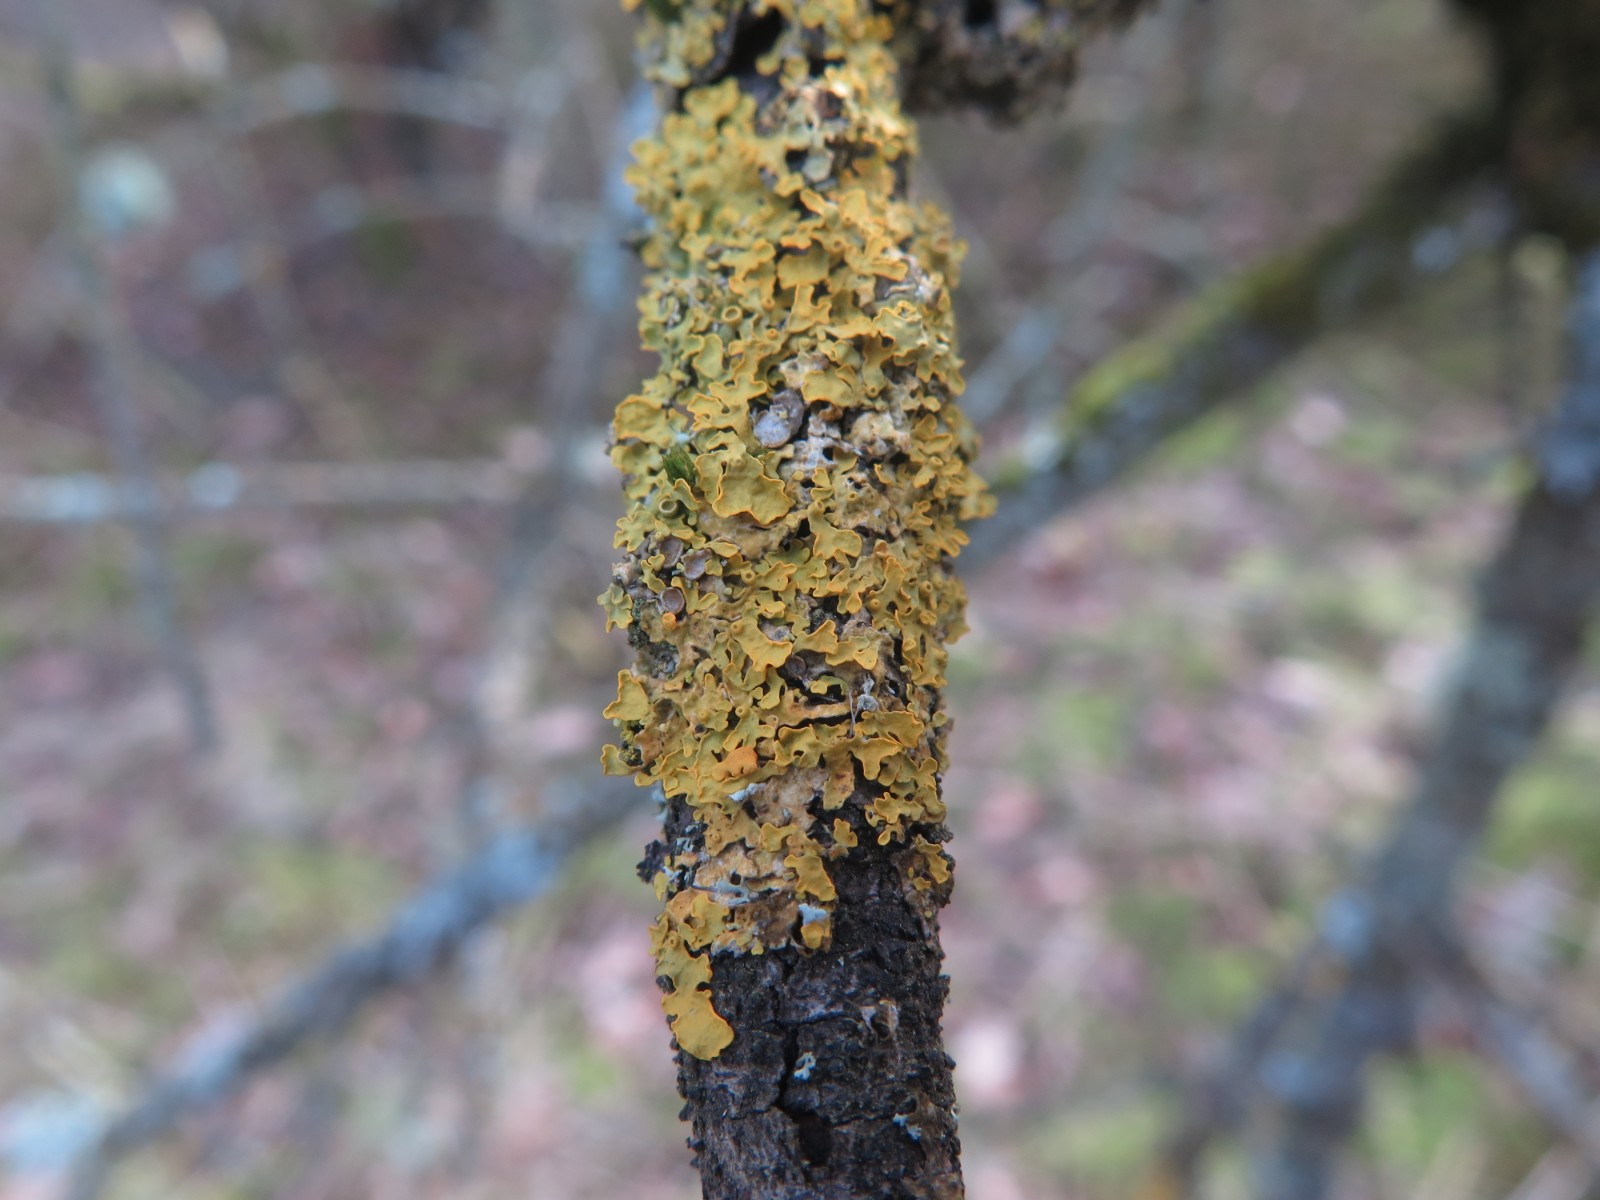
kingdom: Fungi
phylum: Ascomycota
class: Lecanoromycetes
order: Teloschistales
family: Teloschistaceae
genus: Xanthoria
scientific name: Xanthoria parietina
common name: almindelig væggelav
